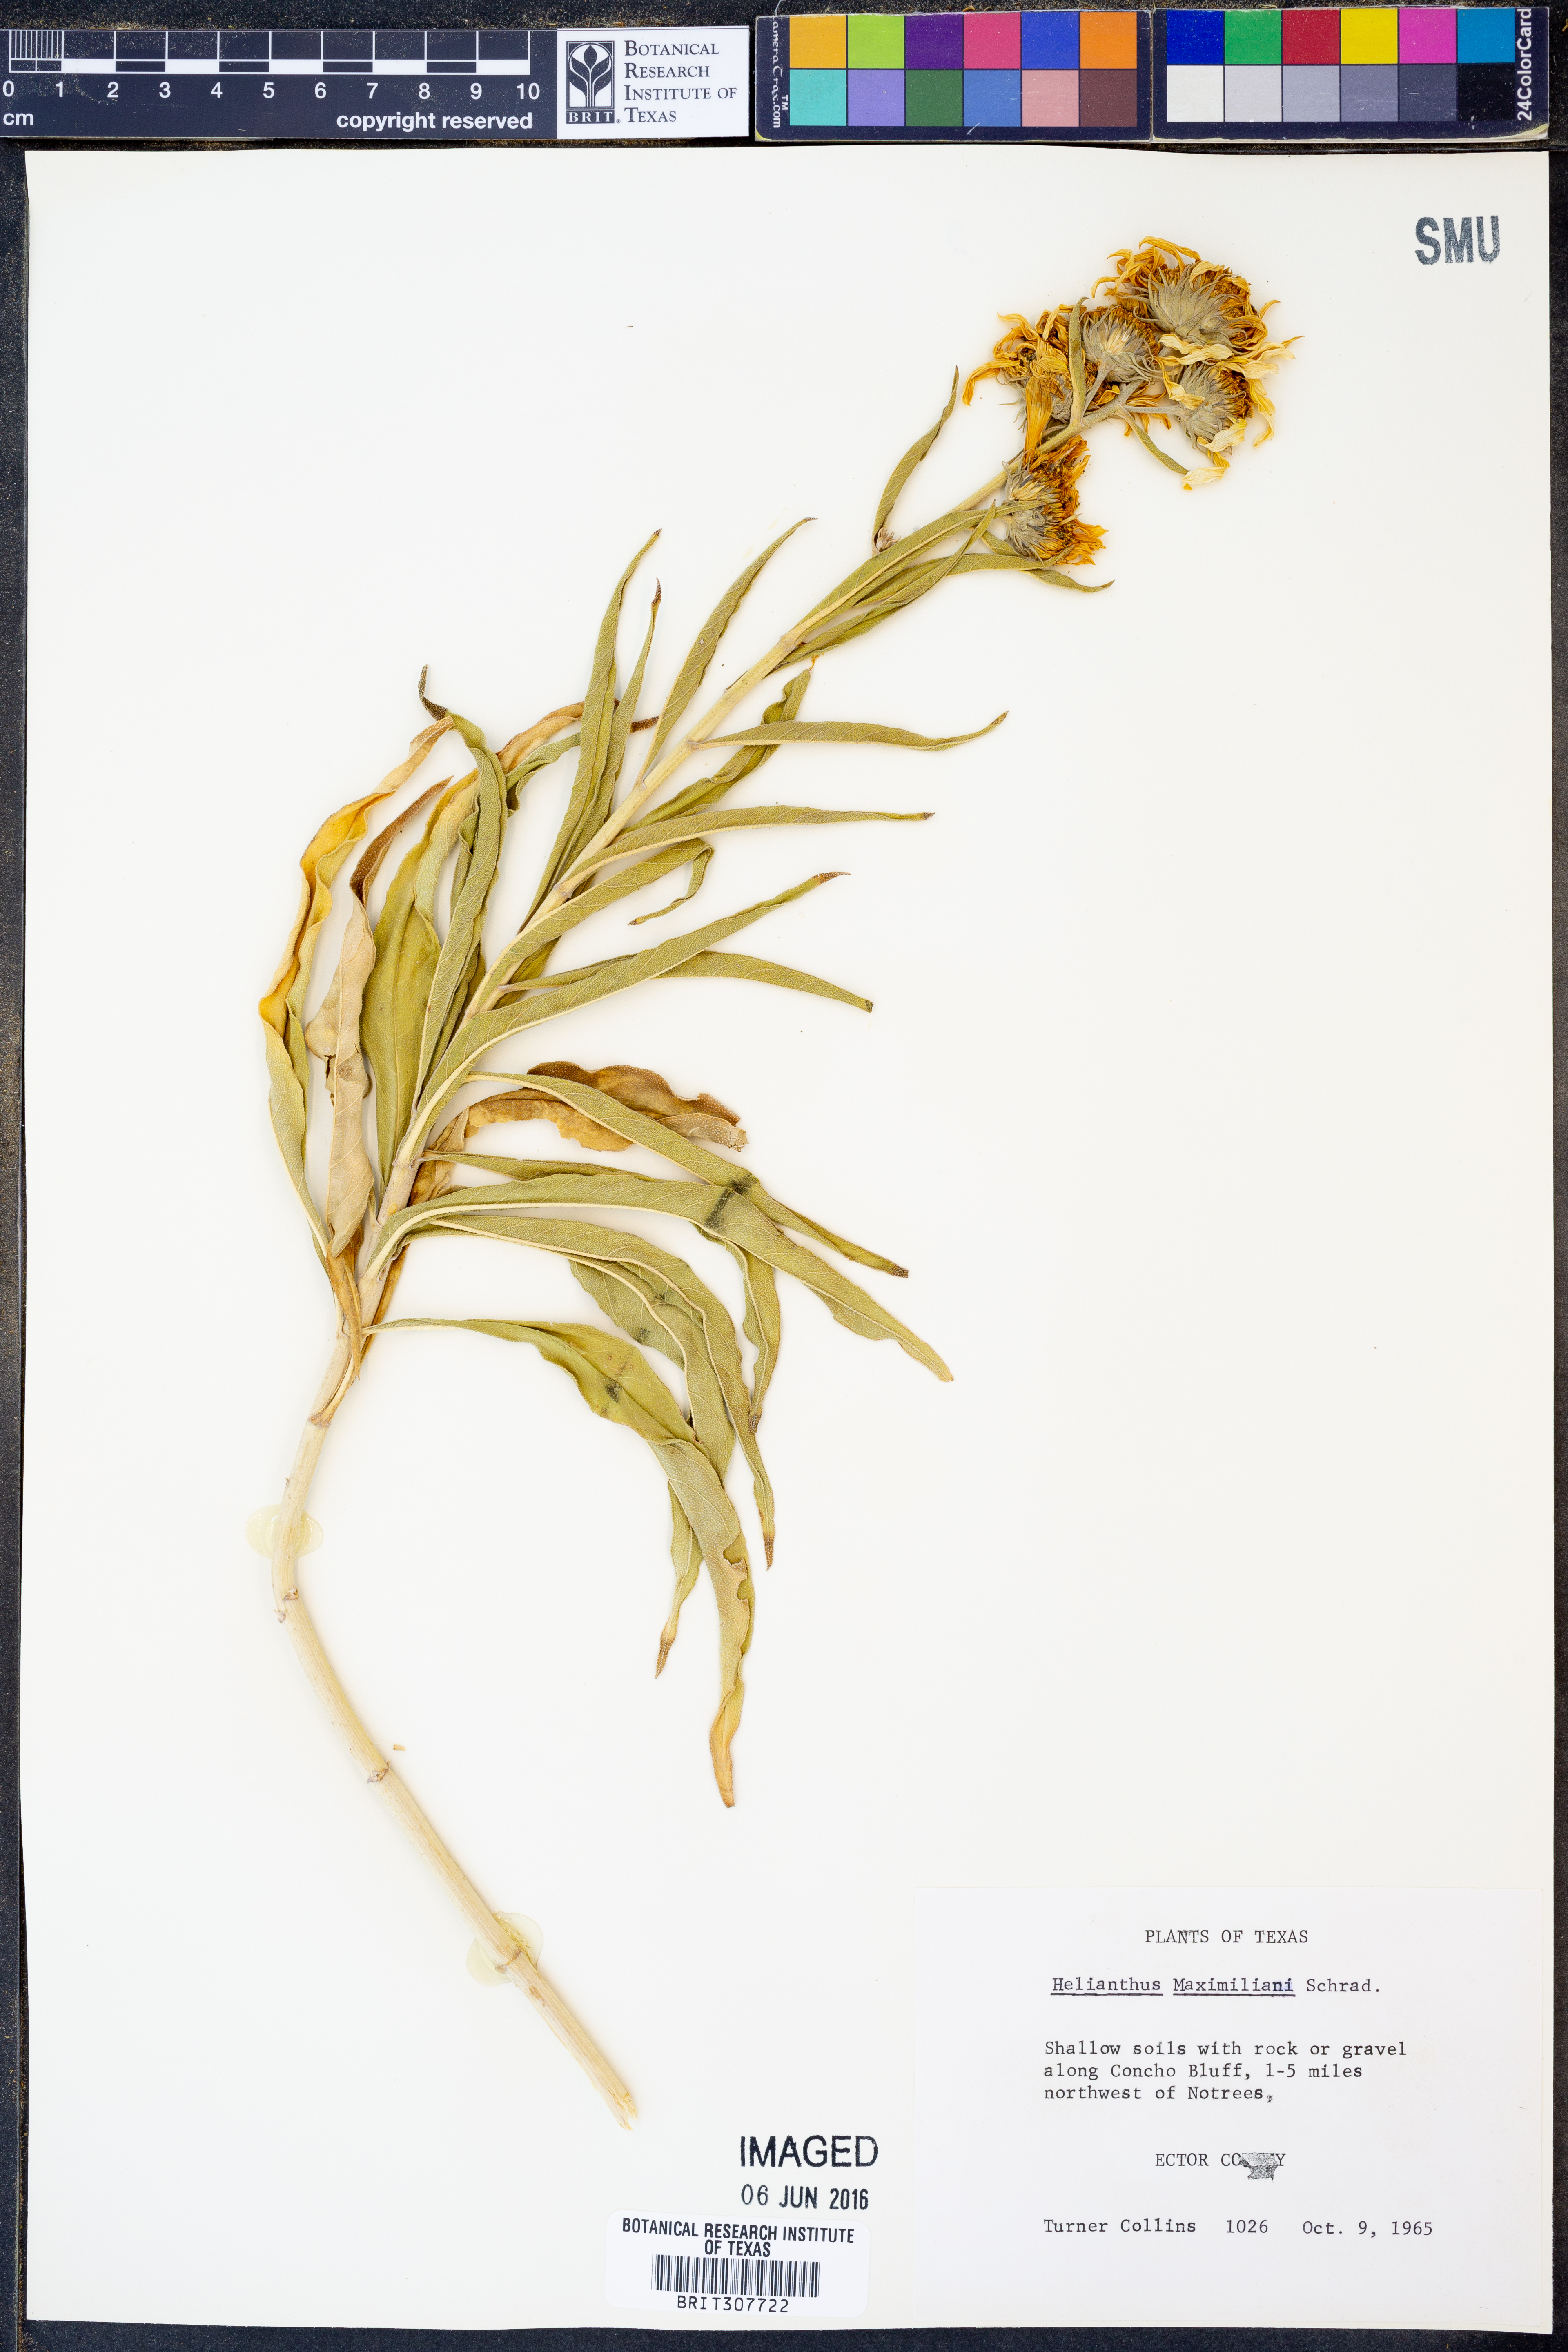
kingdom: Plantae
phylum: Tracheophyta
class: Magnoliopsida
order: Asterales
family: Asteraceae
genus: Helianthus
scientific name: Helianthus maximiliani
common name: Maximilian's sunflower
